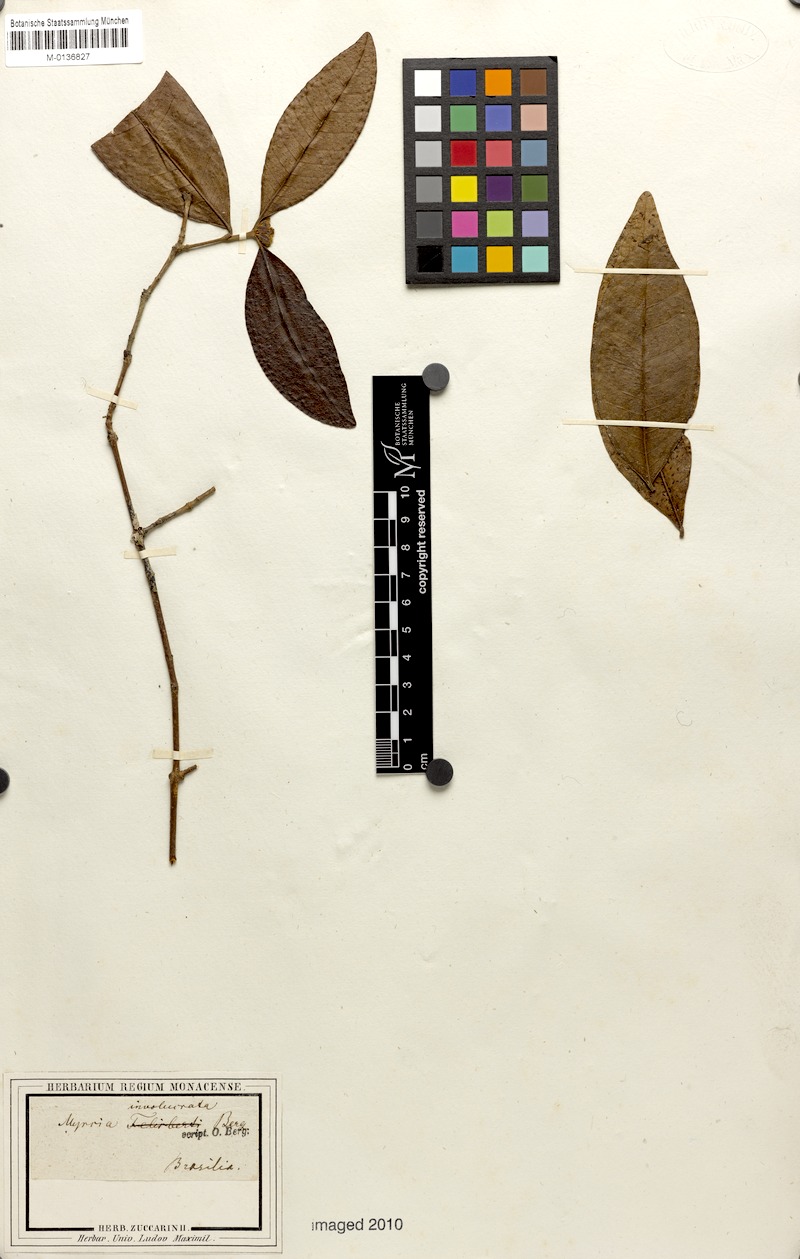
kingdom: Plantae
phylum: Tracheophyta
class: Magnoliopsida
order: Myrtales
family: Myrtaceae
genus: Myrcia
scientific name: Myrcia felisbertii
